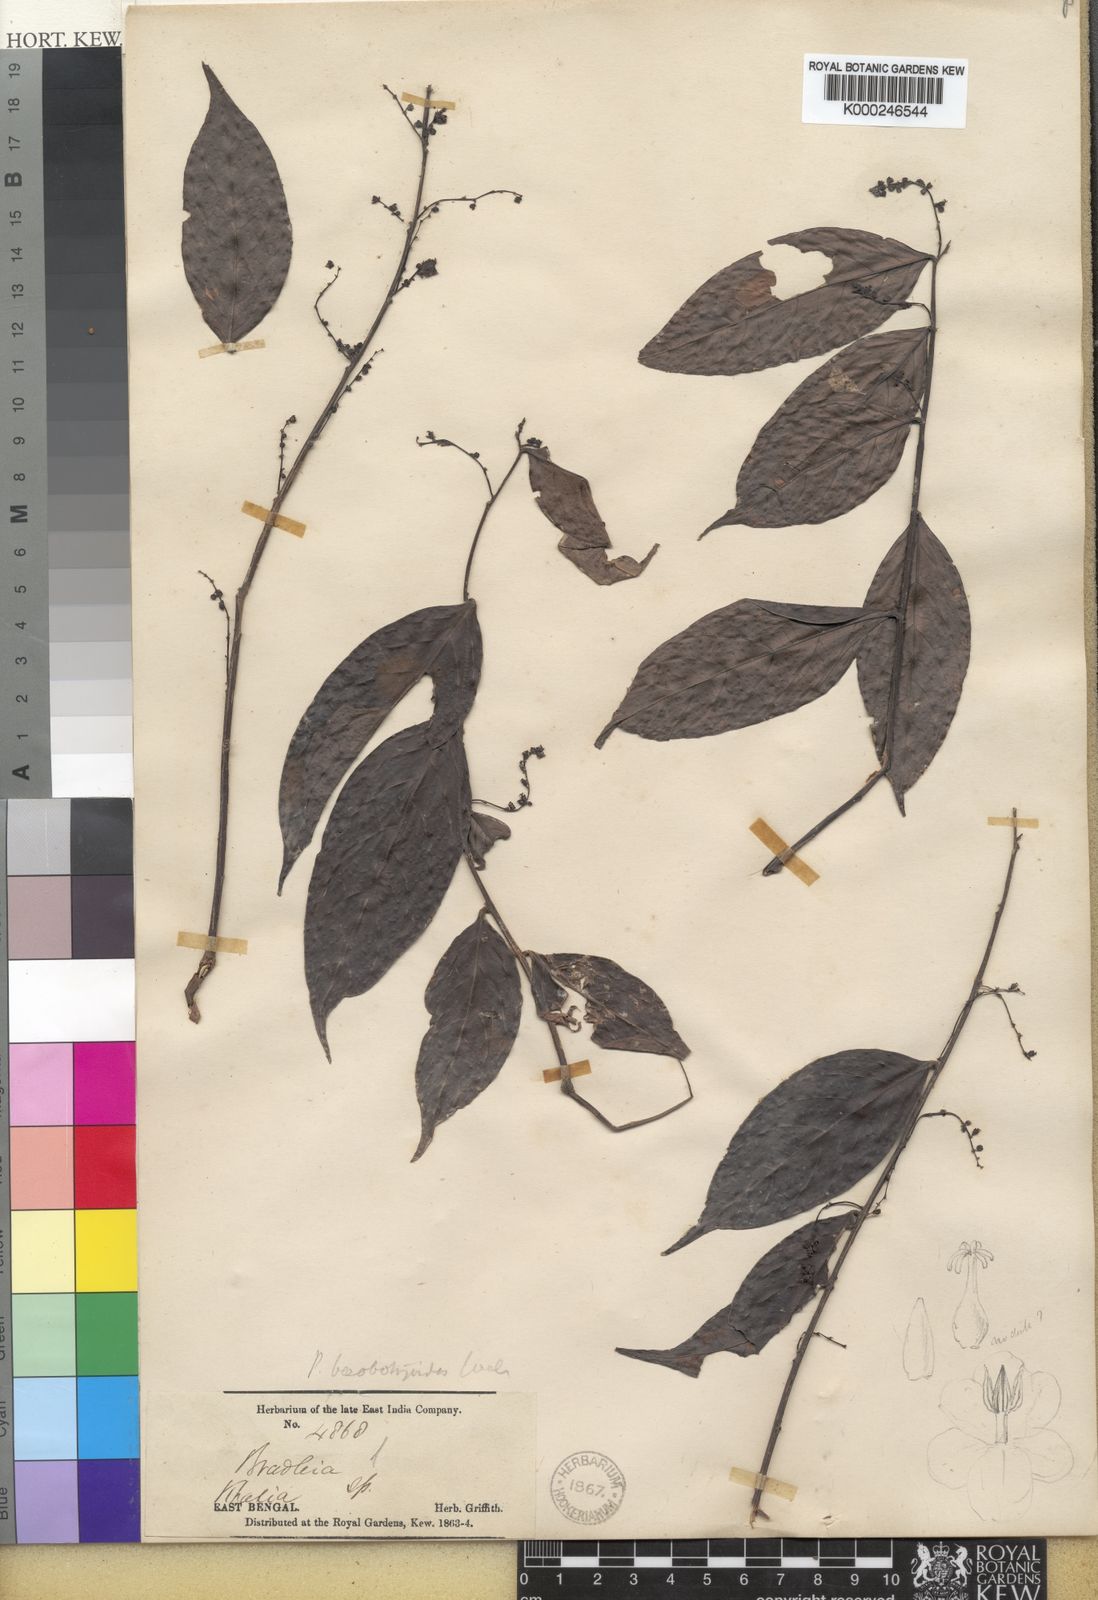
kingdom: Plantae
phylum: Tracheophyta
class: Magnoliopsida
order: Malpighiales
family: Phyllanthaceae
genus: Phyllanthus
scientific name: Phyllanthus
